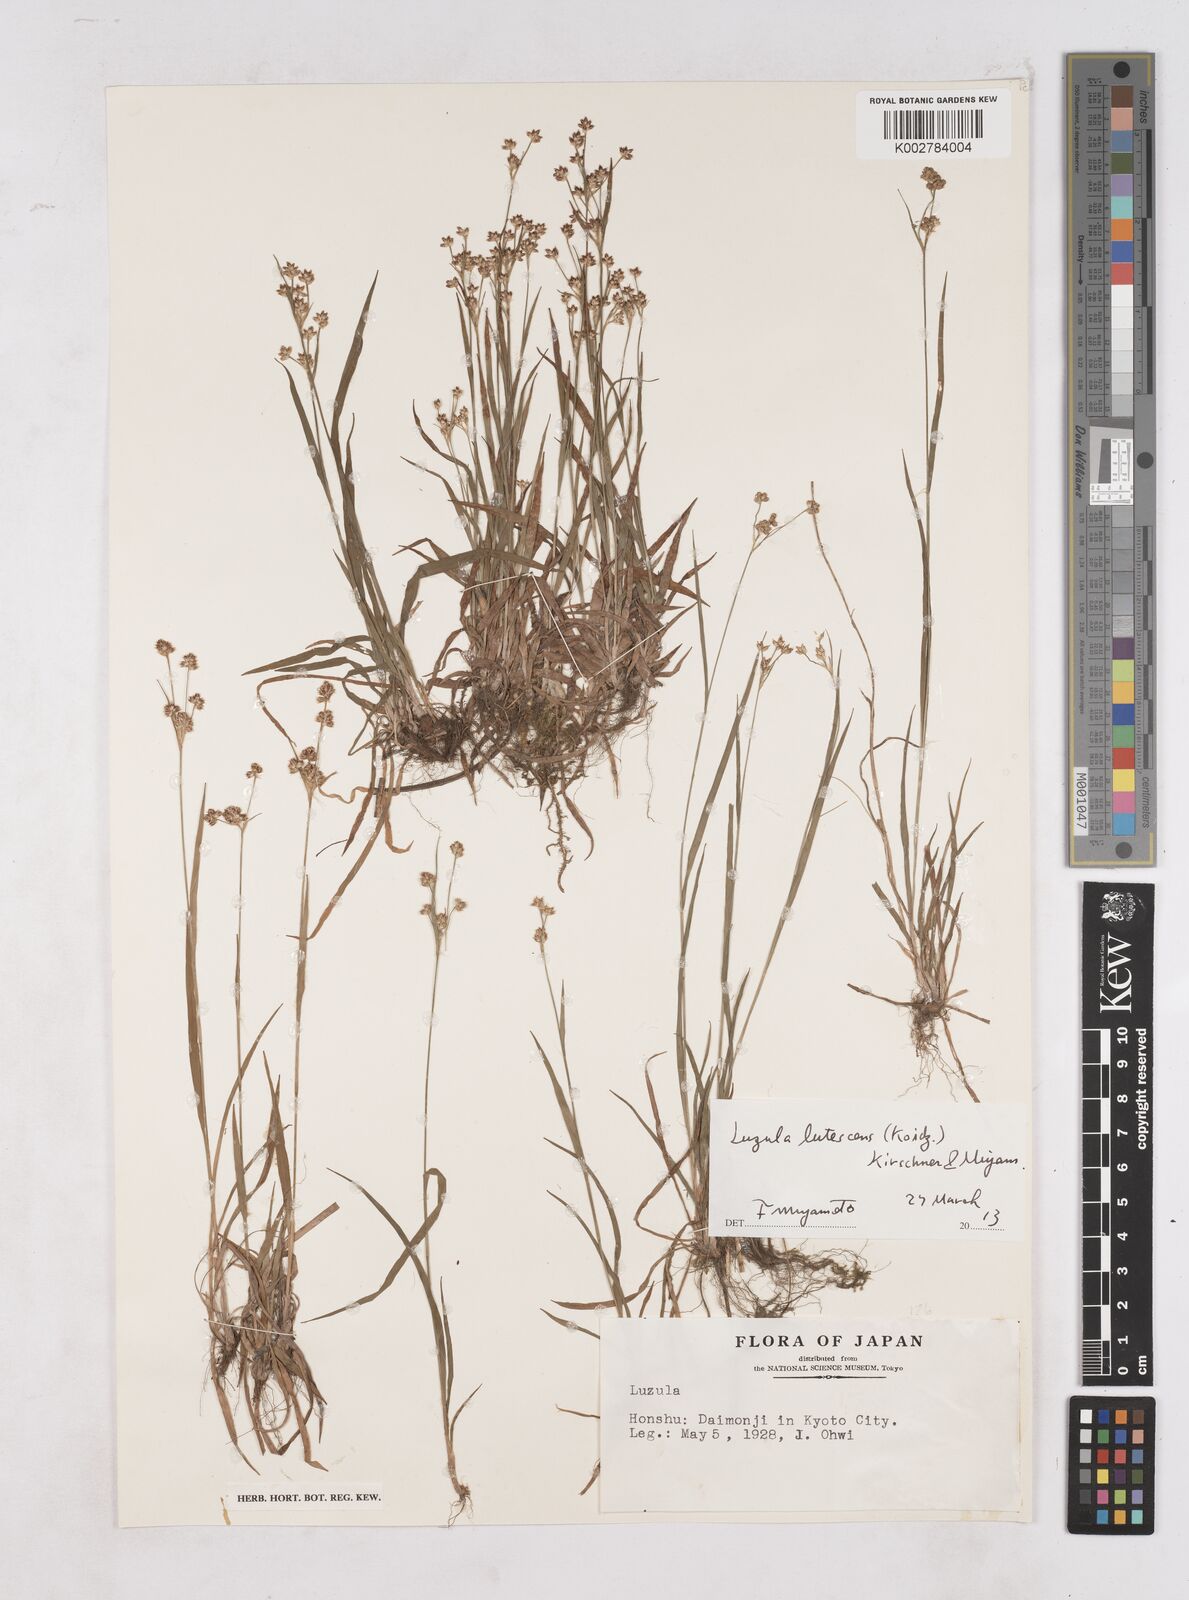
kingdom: Plantae
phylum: Tracheophyta
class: Liliopsida
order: Poales
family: Juncaceae
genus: Luzula
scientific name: Luzula lutescens
